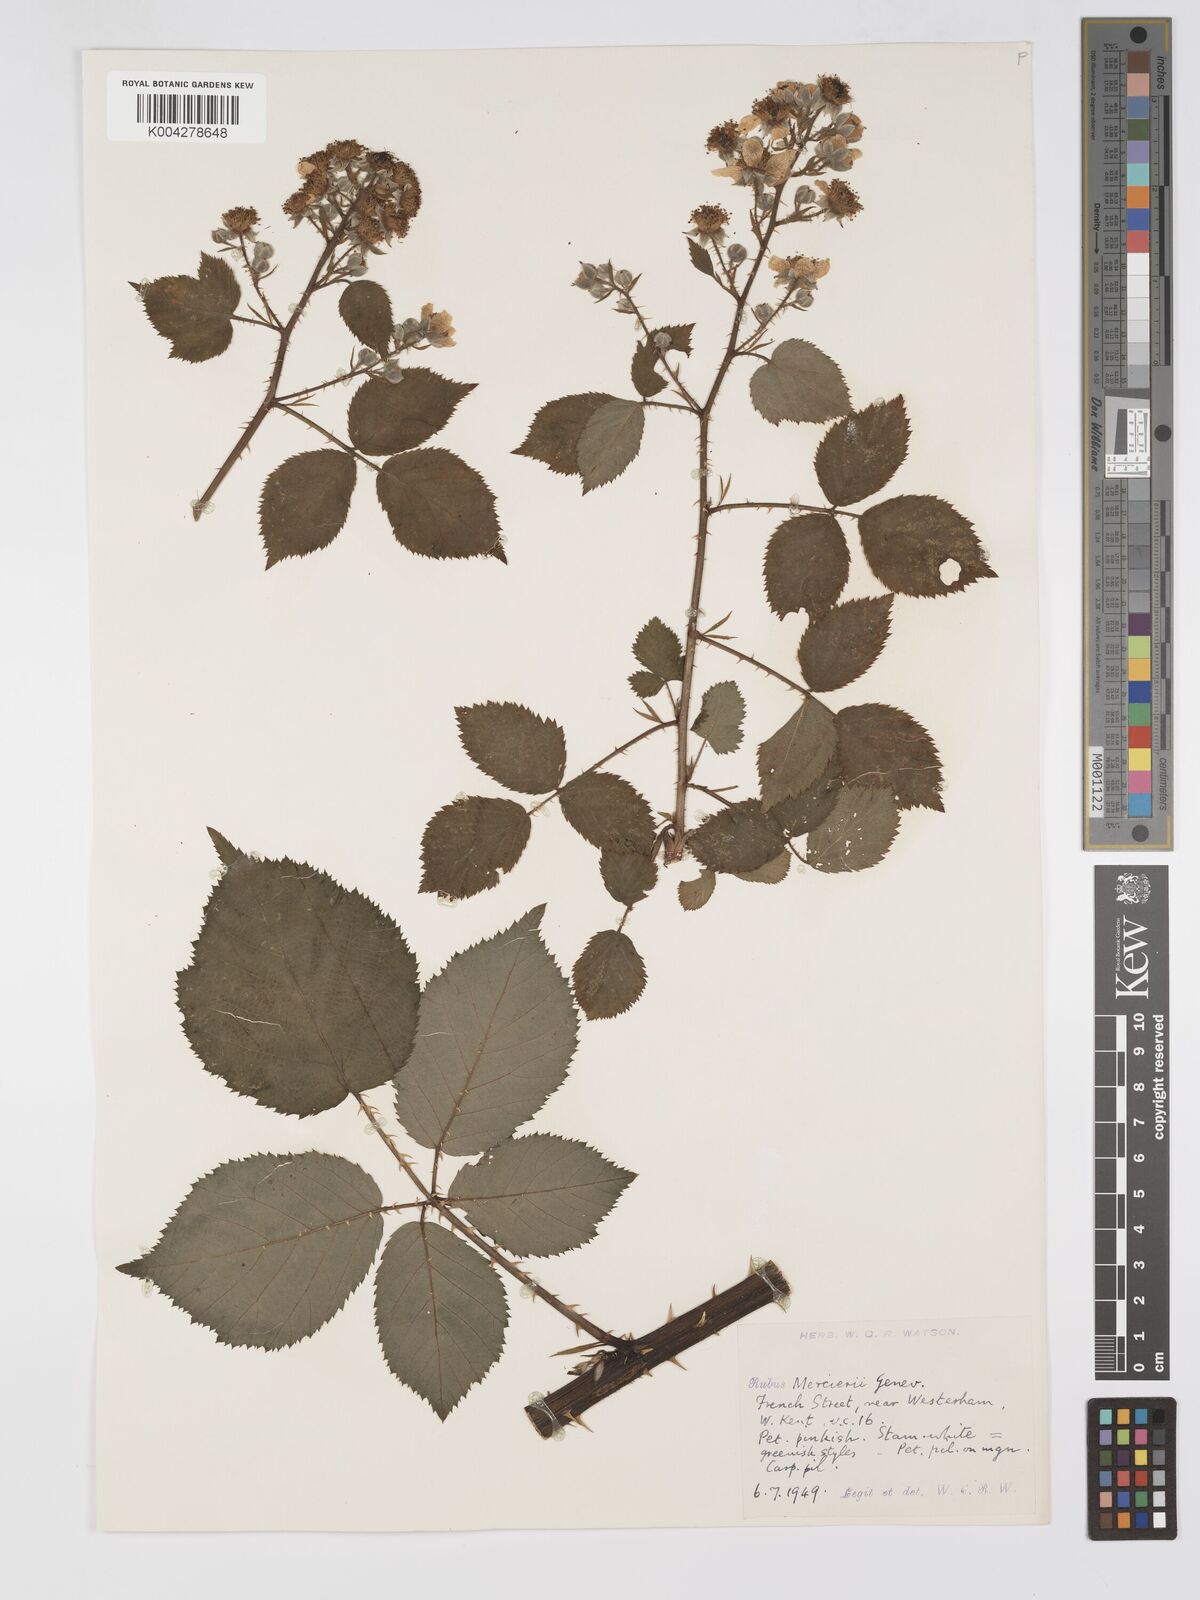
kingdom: Plantae
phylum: Tracheophyta
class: Magnoliopsida
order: Rosales
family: Rosaceae
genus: Rubus
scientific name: Rubus mercieri
